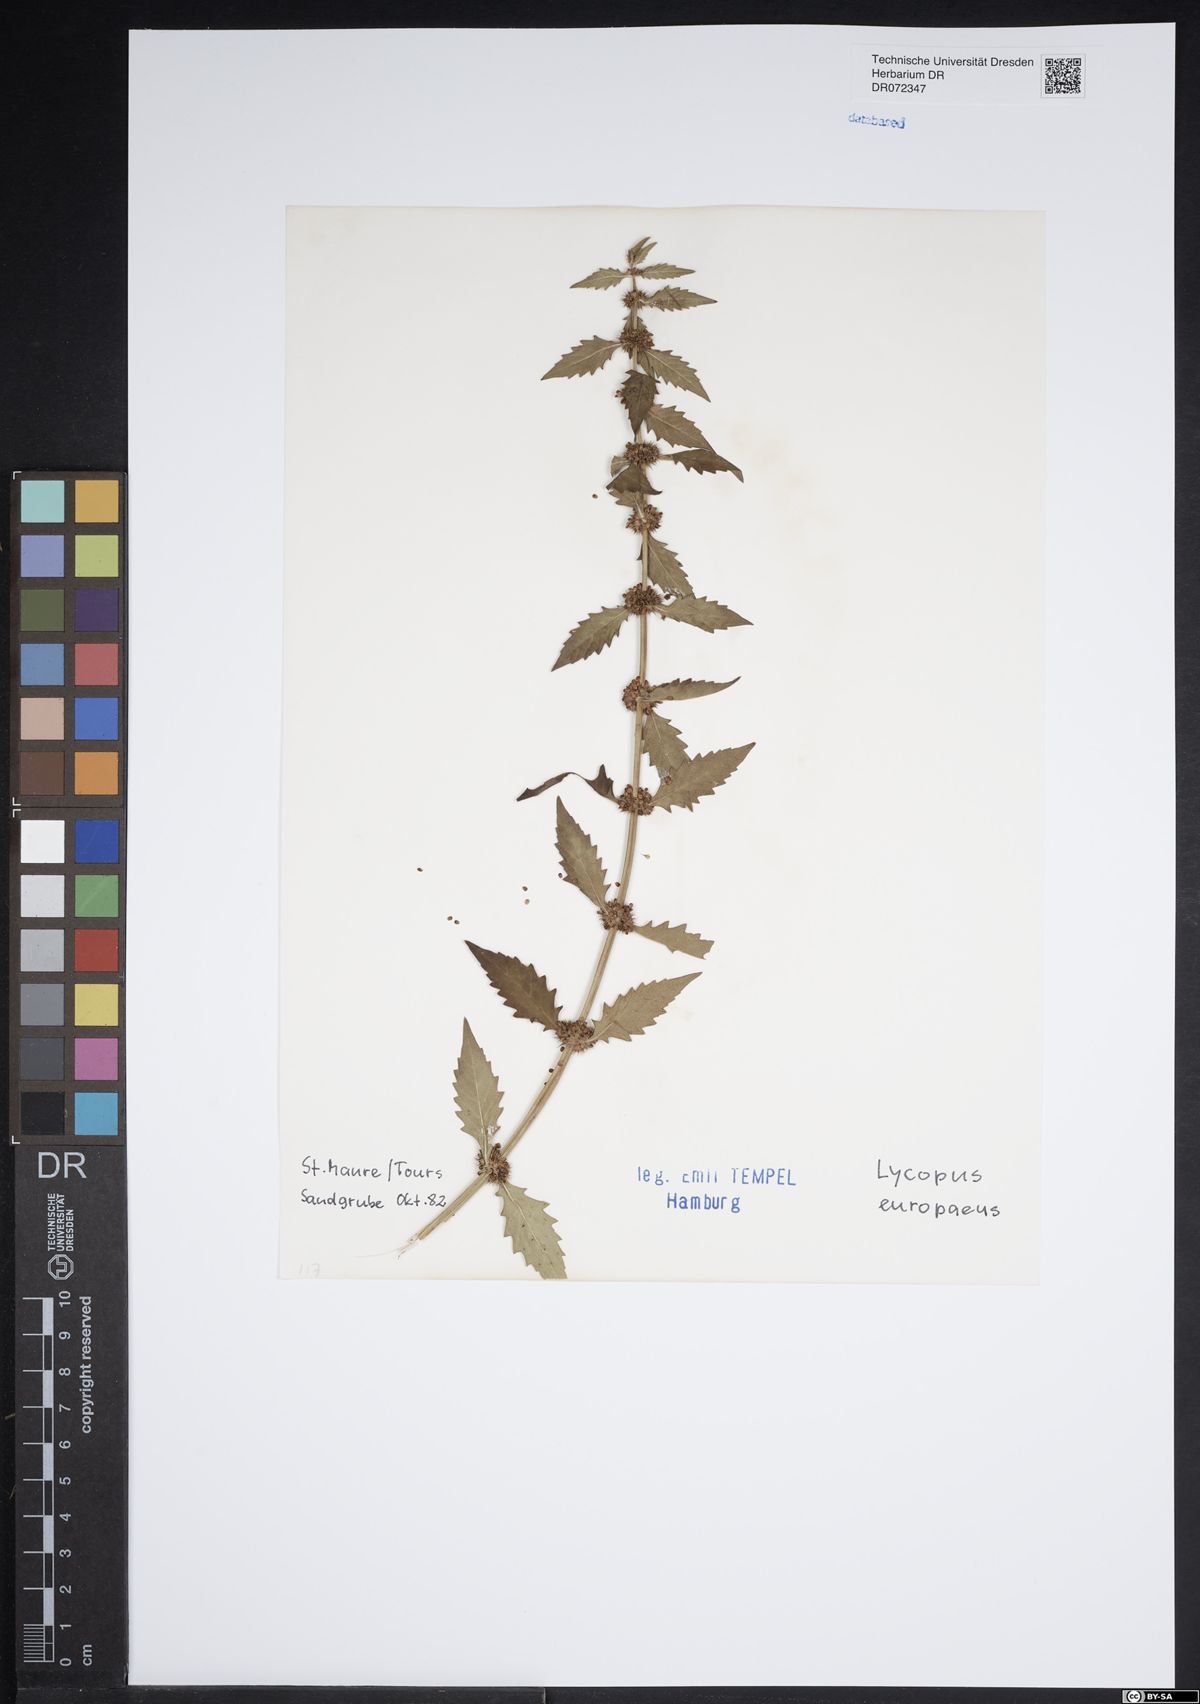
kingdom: Plantae
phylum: Tracheophyta
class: Magnoliopsida
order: Lamiales
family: Lamiaceae
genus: Lycopus
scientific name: Lycopus europaeus
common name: European bugleweed
